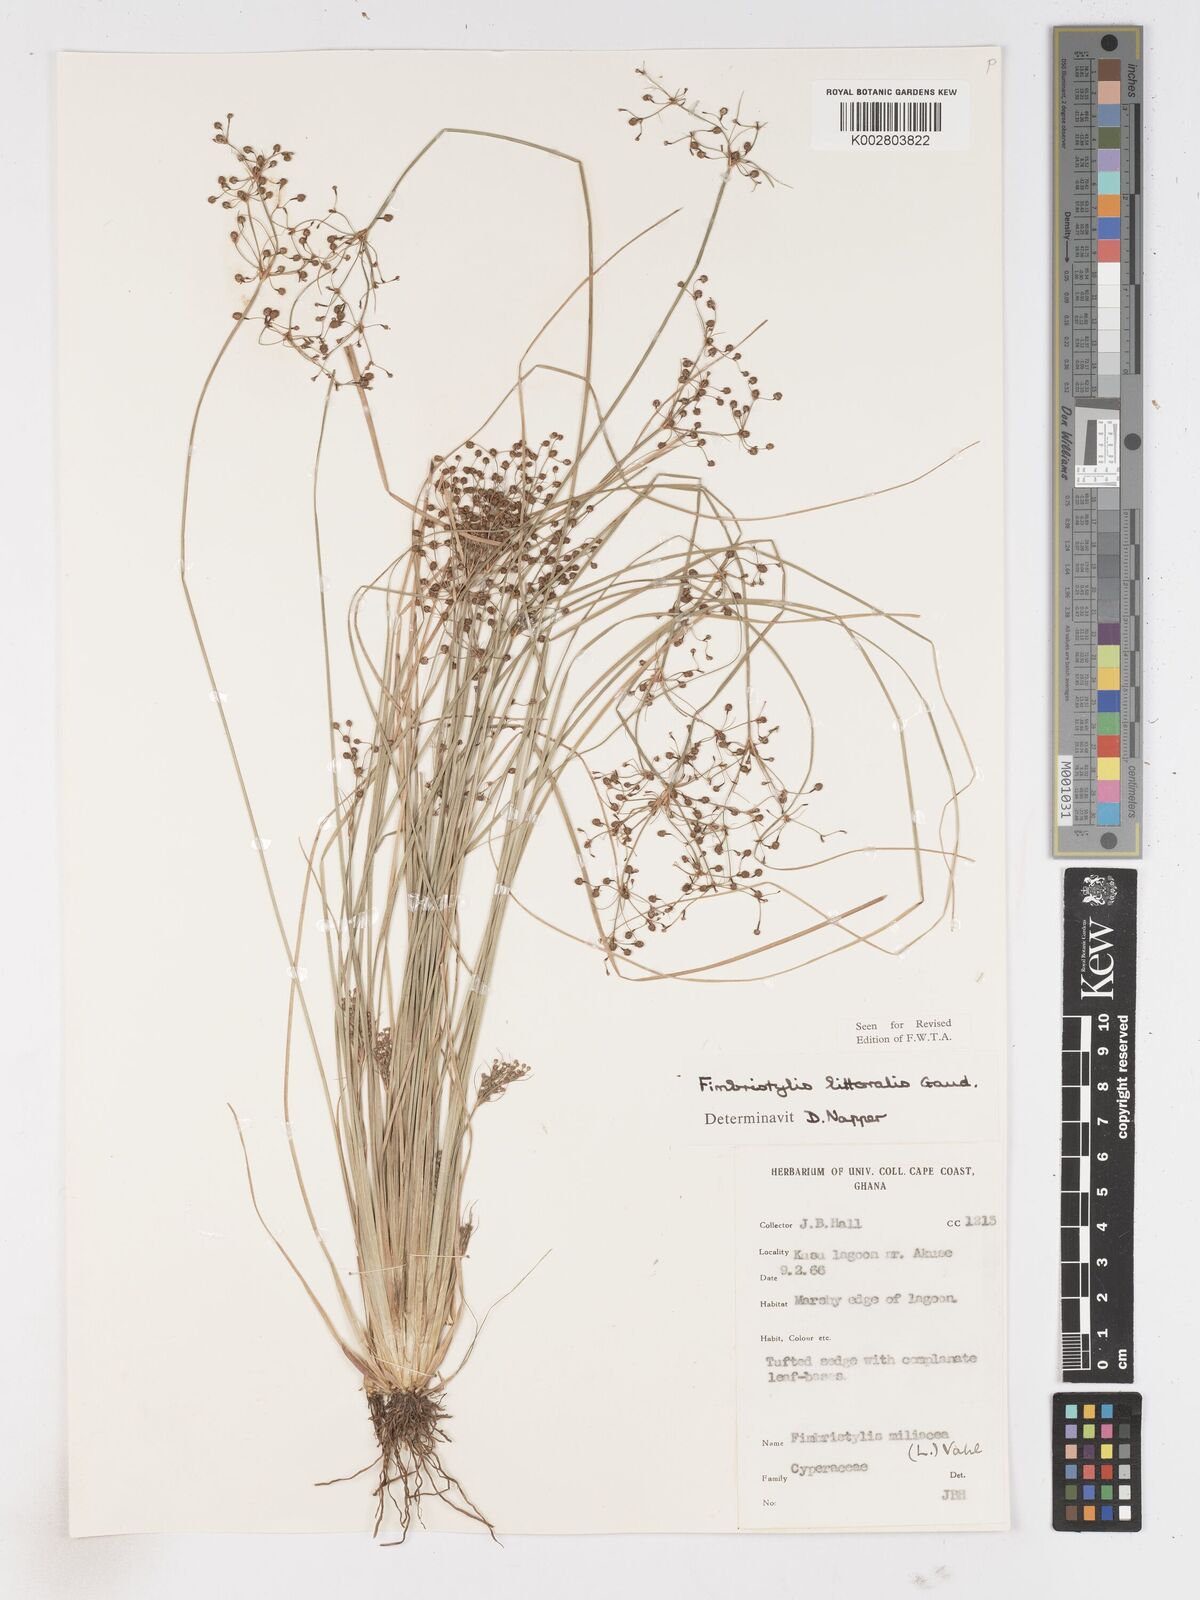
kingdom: Plantae
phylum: Tracheophyta
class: Liliopsida
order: Poales
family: Cyperaceae
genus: Fimbristylis
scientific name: Fimbristylis littoralis
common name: Fimbry
